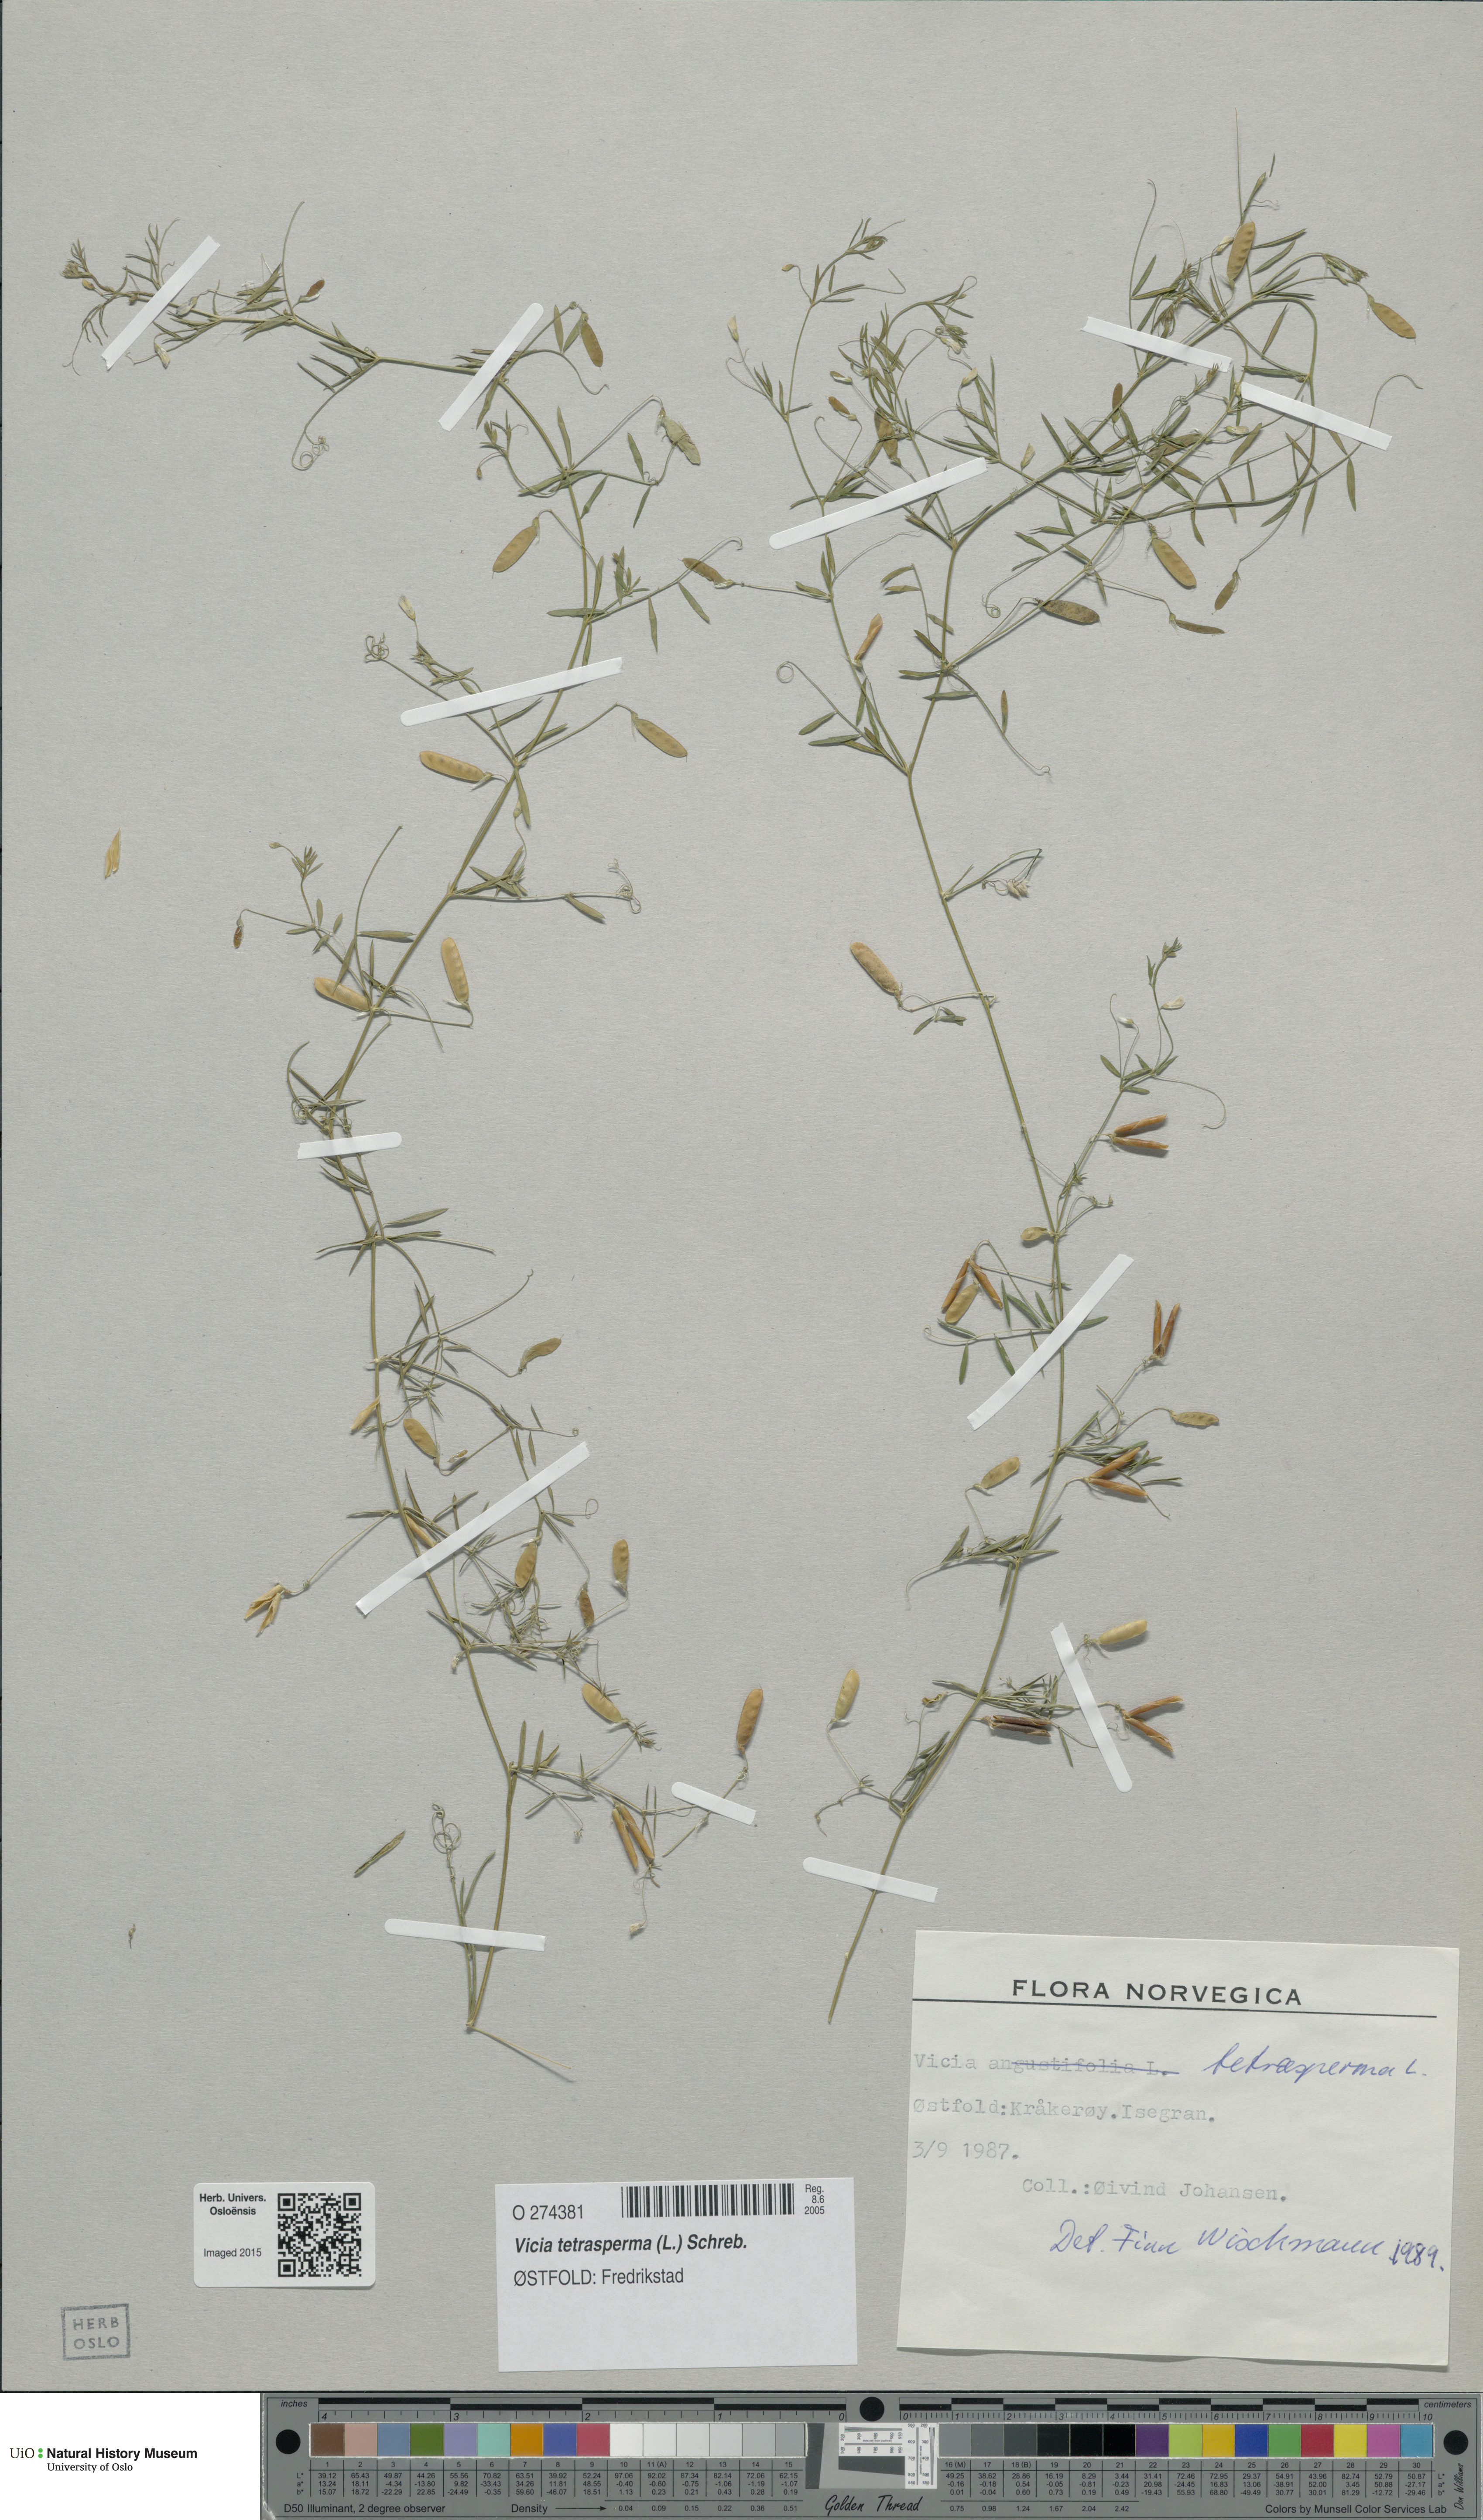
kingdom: Plantae
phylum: Tracheophyta
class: Magnoliopsida
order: Fabales
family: Fabaceae
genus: Vicia
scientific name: Vicia tetrasperma
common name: Smooth tare
